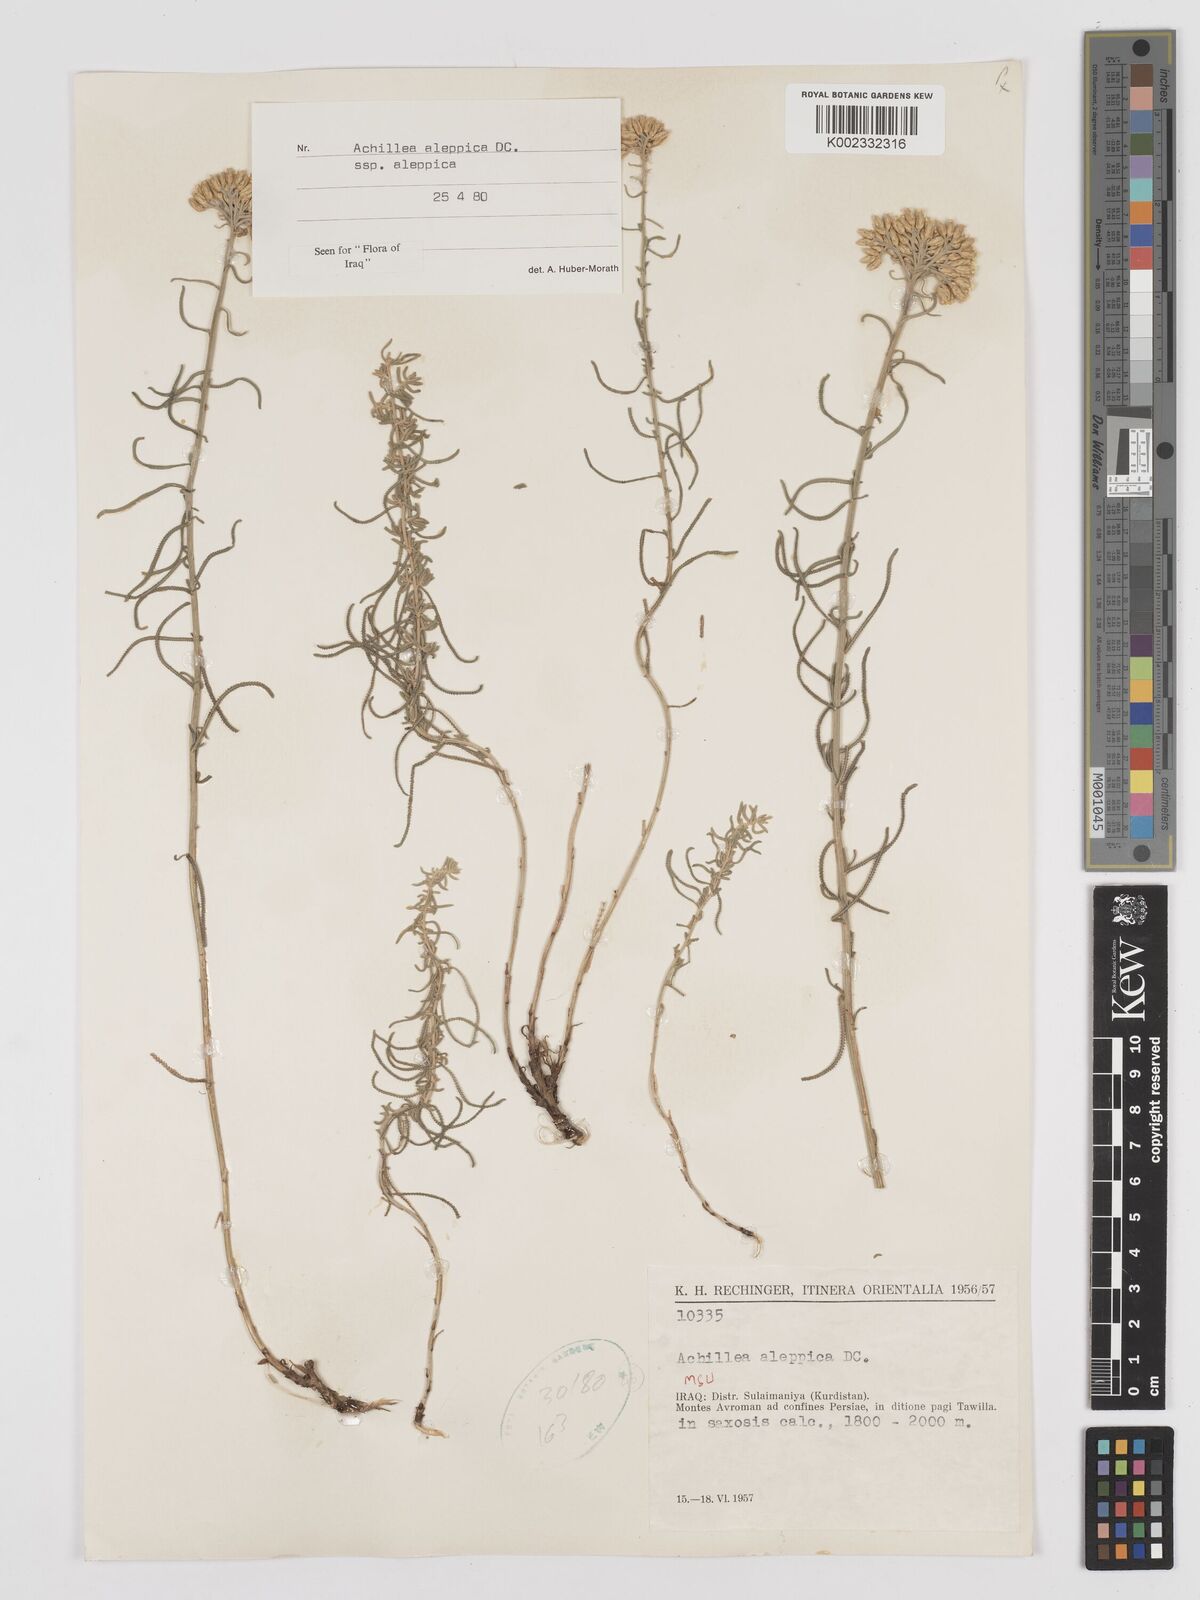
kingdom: Plantae
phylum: Tracheophyta
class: Magnoliopsida
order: Asterales
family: Asteraceae
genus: Achillea
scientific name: Achillea aleppica
